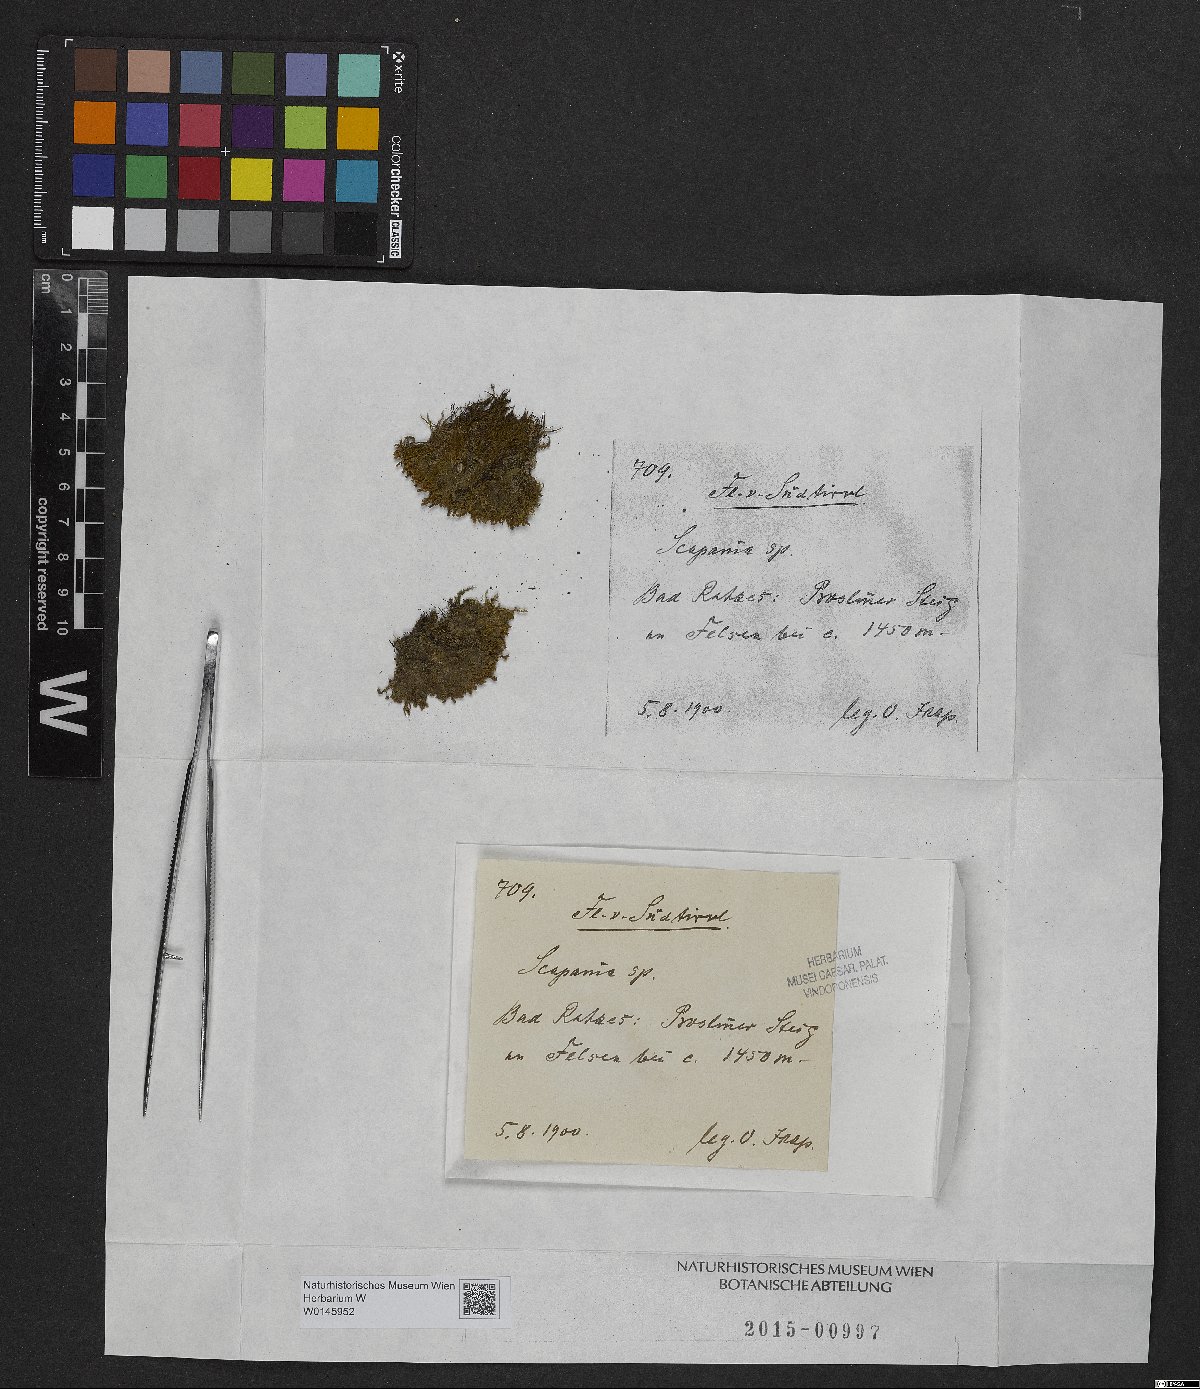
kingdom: Plantae
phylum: Marchantiophyta
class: Jungermanniopsida
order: Jungermanniales
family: Scapaniaceae
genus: Scapania
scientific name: Scapania
